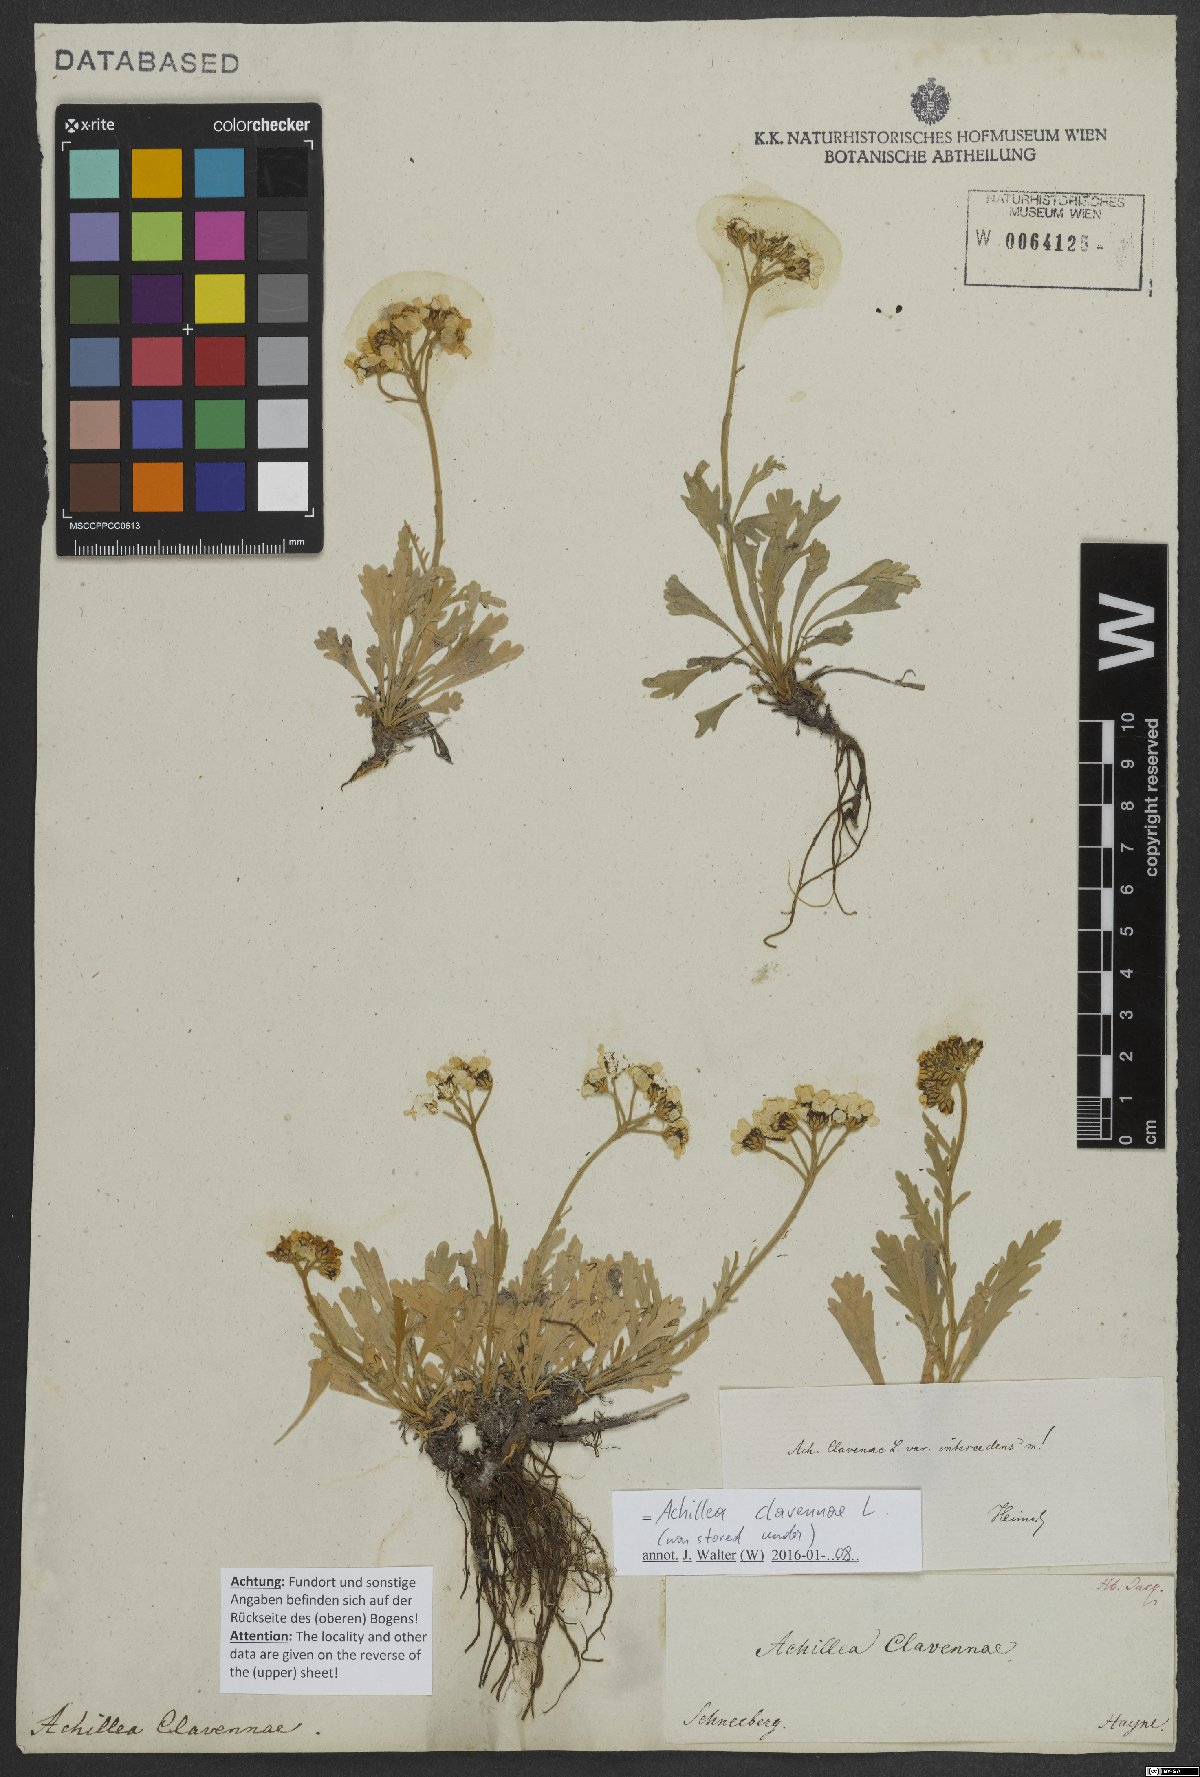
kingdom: Plantae
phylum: Tracheophyta
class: Magnoliopsida
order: Asterales
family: Asteraceae
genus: Achillea
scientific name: Achillea clavennae
